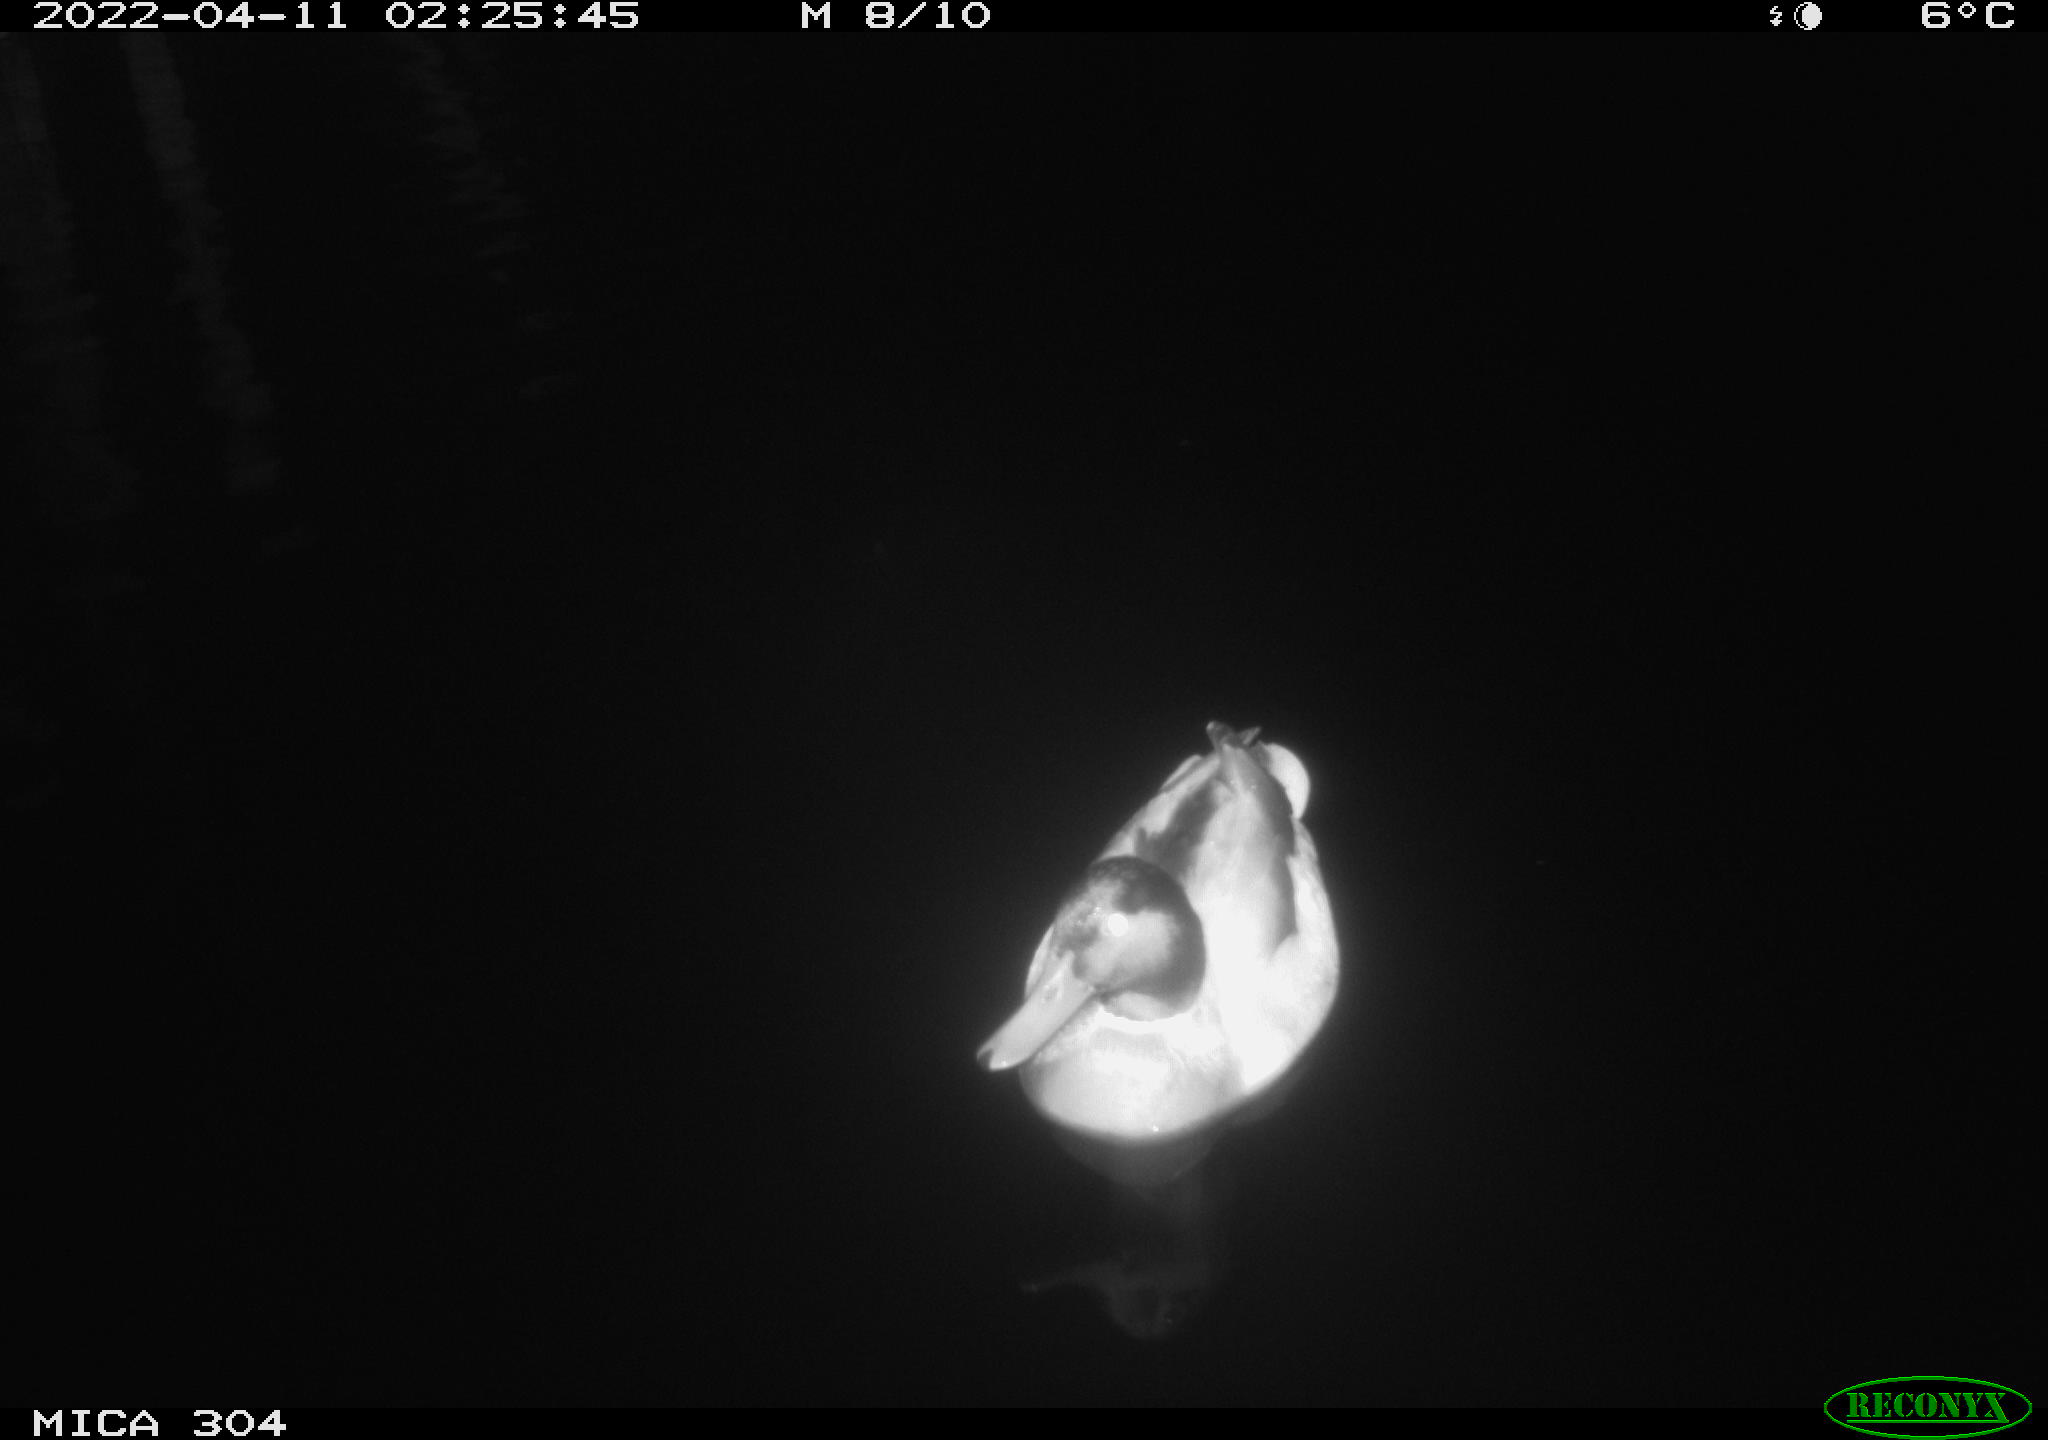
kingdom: Animalia
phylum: Chordata
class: Aves
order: Anseriformes
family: Anatidae
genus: Anas
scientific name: Anas platyrhynchos
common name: Mallard
